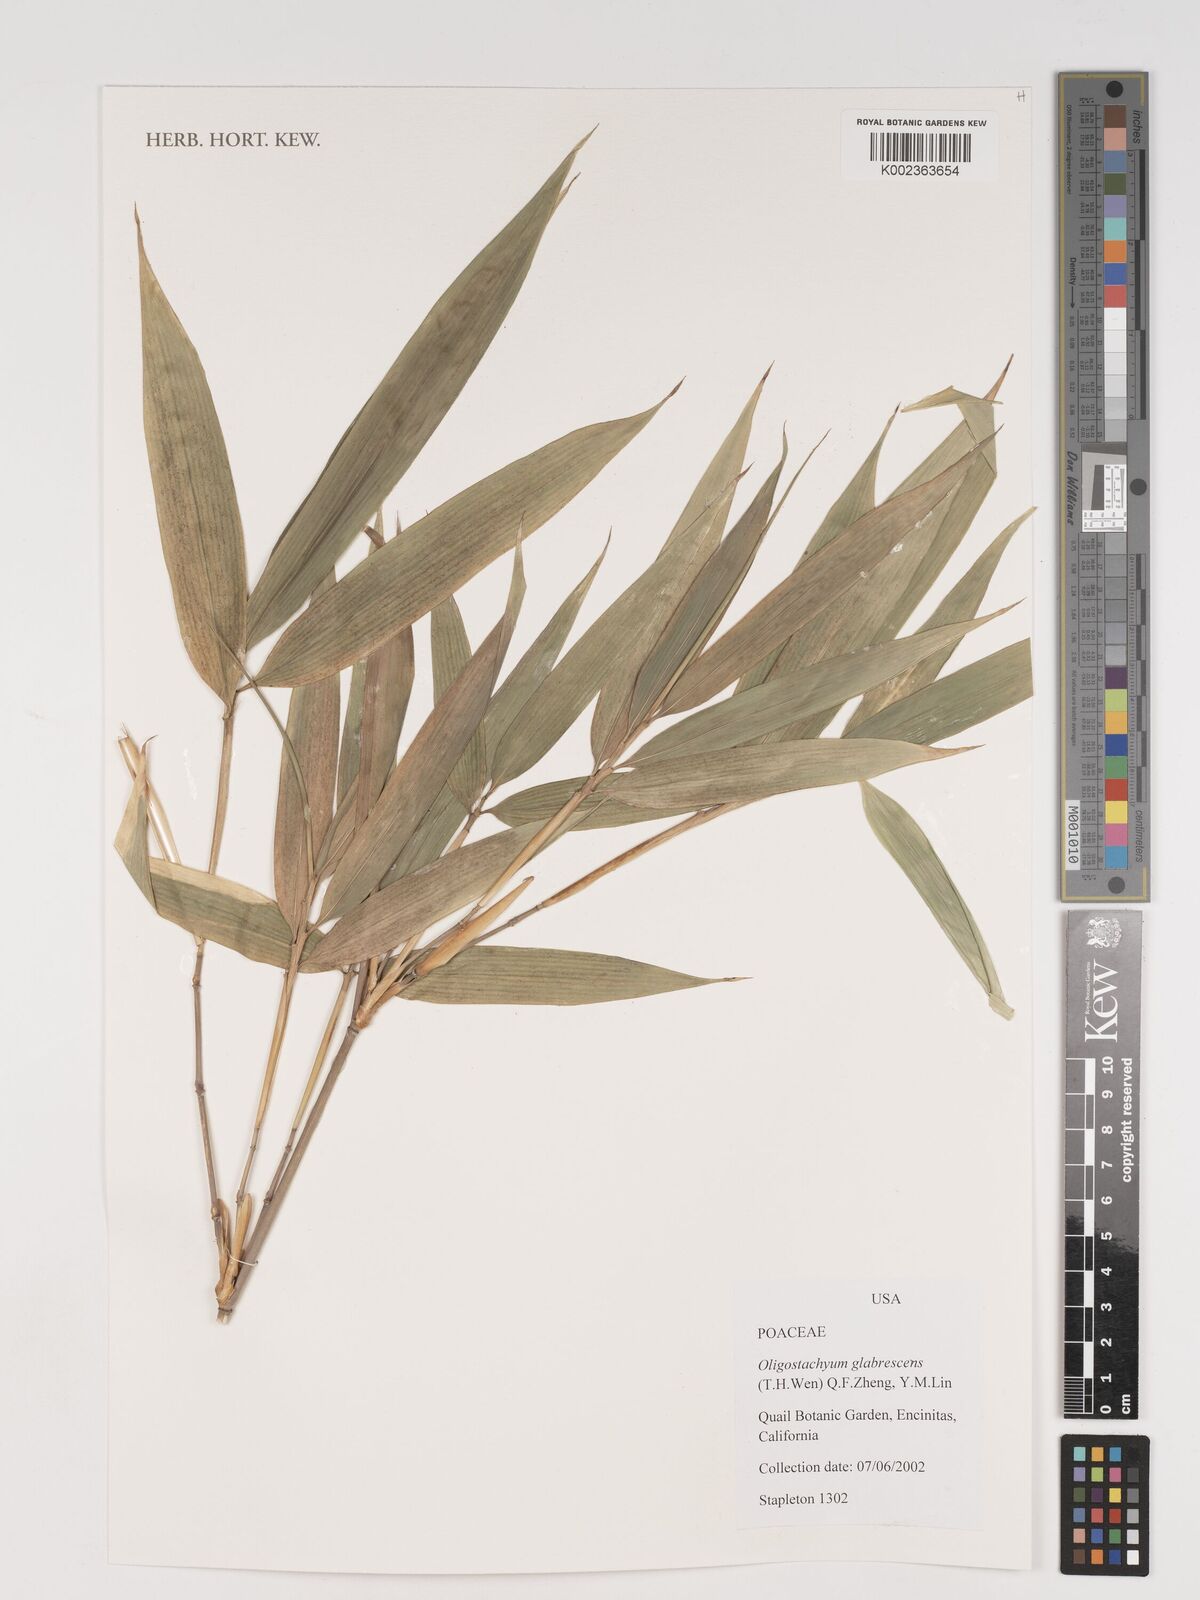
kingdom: Plantae
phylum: Tracheophyta
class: Liliopsida
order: Poales
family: Poaceae
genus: Oligostachyum
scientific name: Oligostachyum glabrescens
